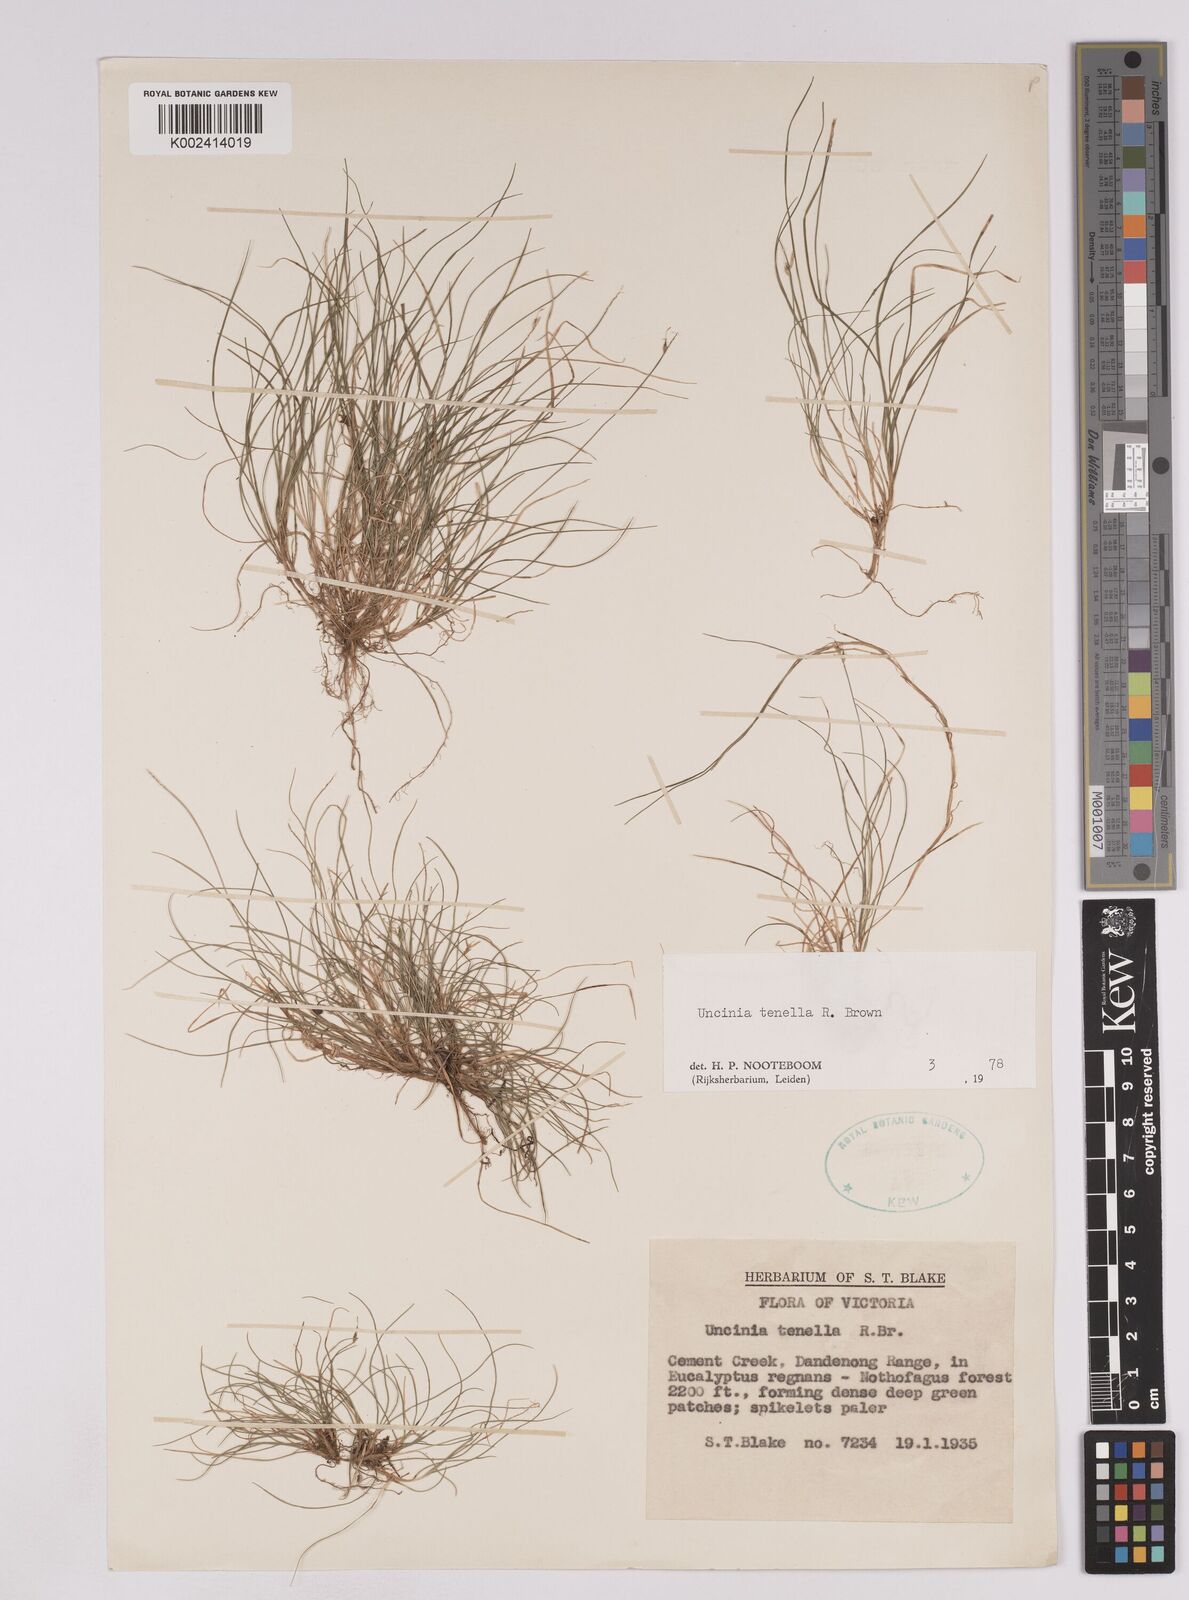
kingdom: Plantae
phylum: Tracheophyta
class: Liliopsida
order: Poales
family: Cyperaceae
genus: Carex
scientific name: Carex austrotenella
